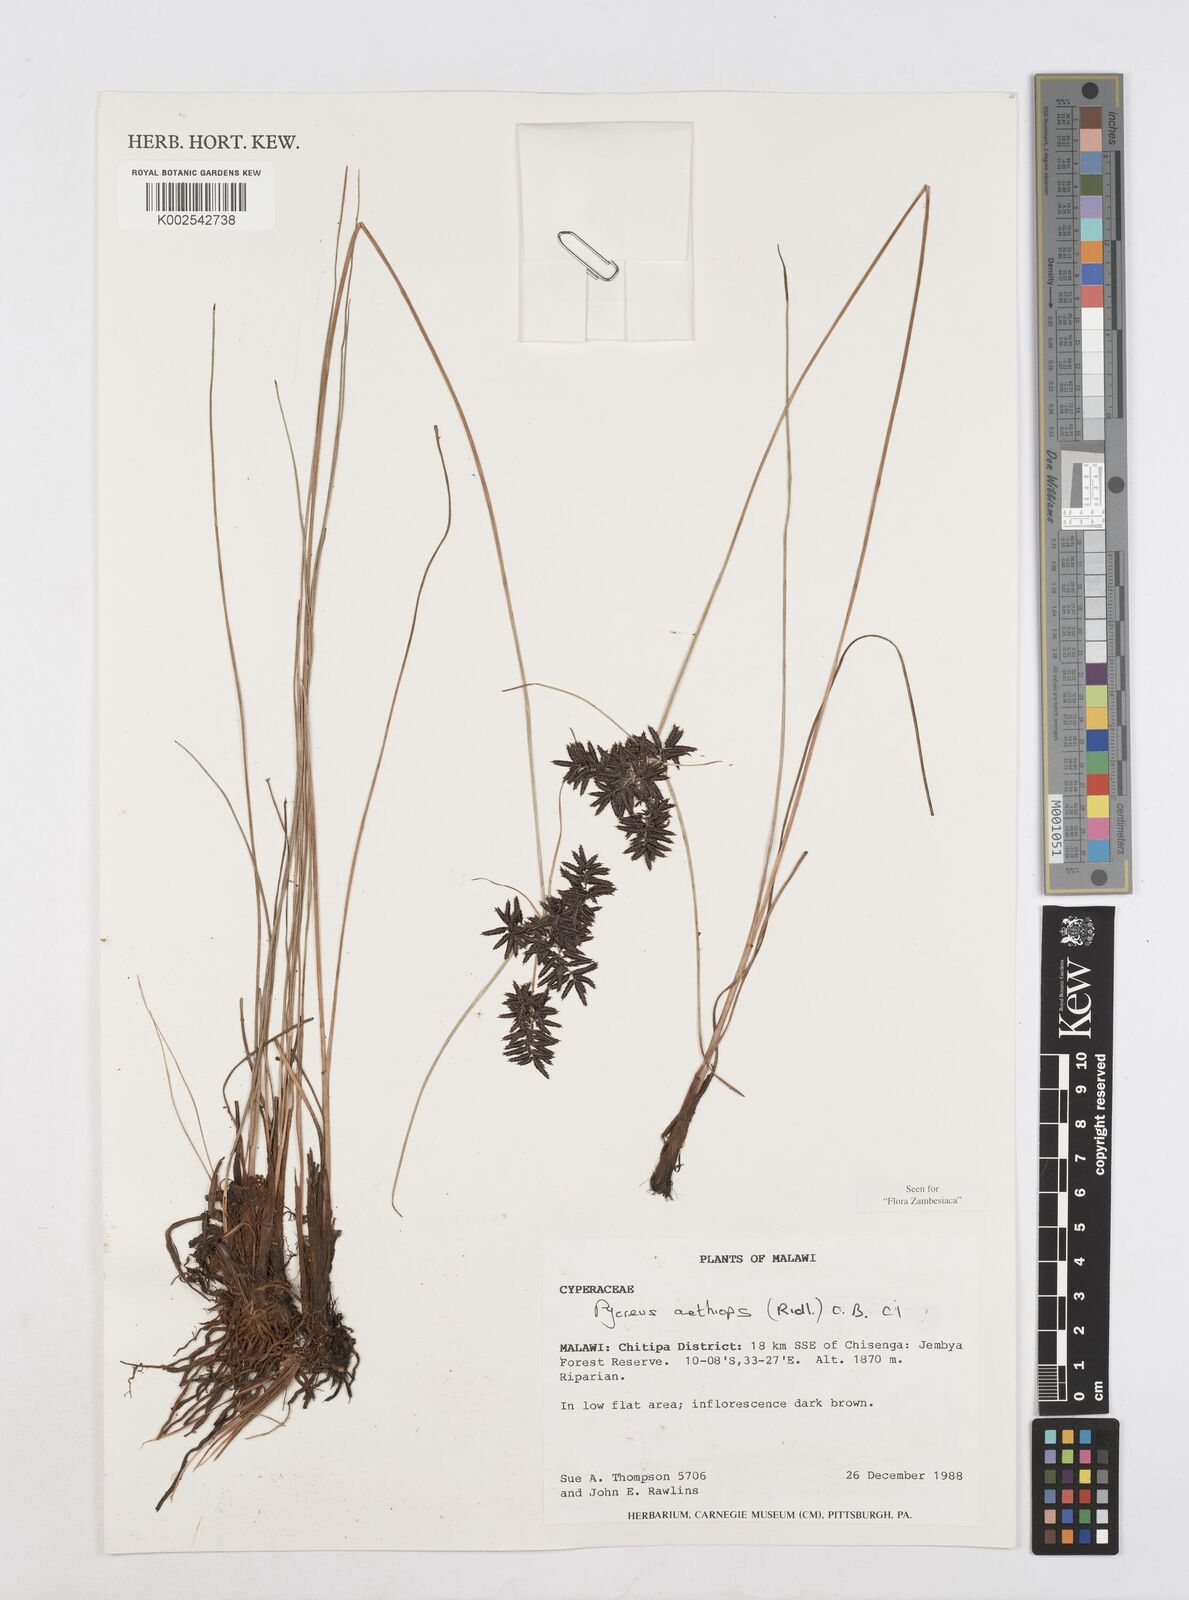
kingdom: Plantae
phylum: Tracheophyta
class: Liliopsida
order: Poales
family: Cyperaceae
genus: Cyperus
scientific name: Cyperus aethiops
